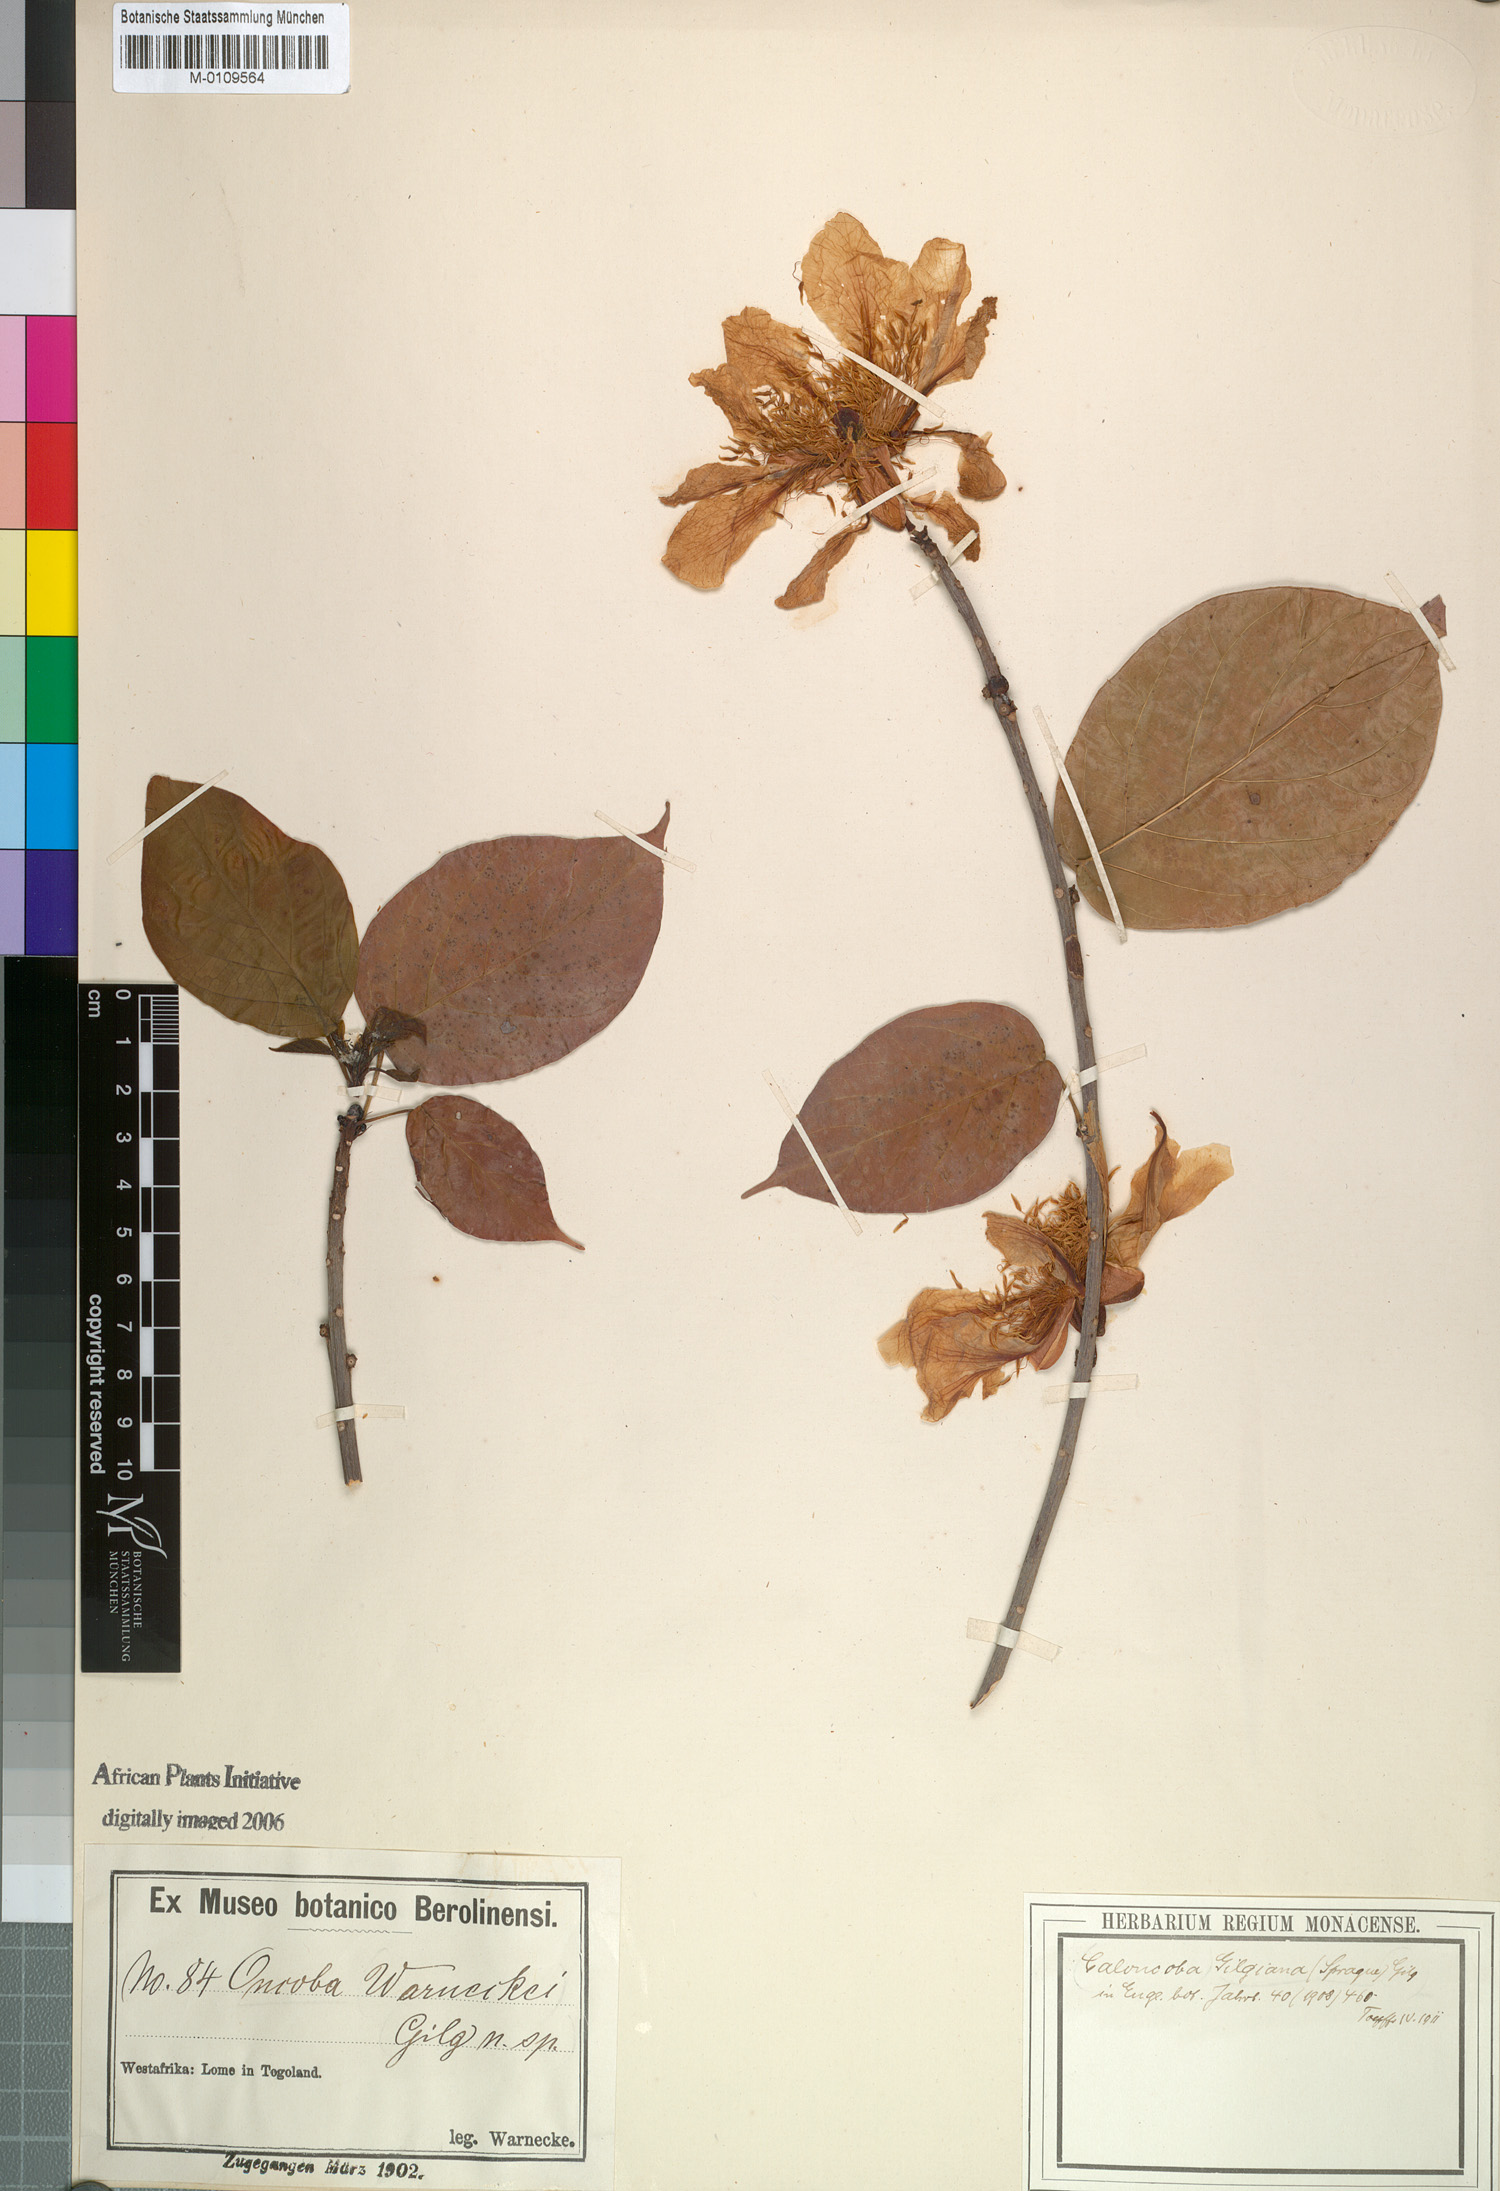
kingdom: Plantae
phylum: Tracheophyta
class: Magnoliopsida
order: Malpighiales
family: Achariaceae
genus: Caloncoba
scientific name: Caloncoba gilgiana
